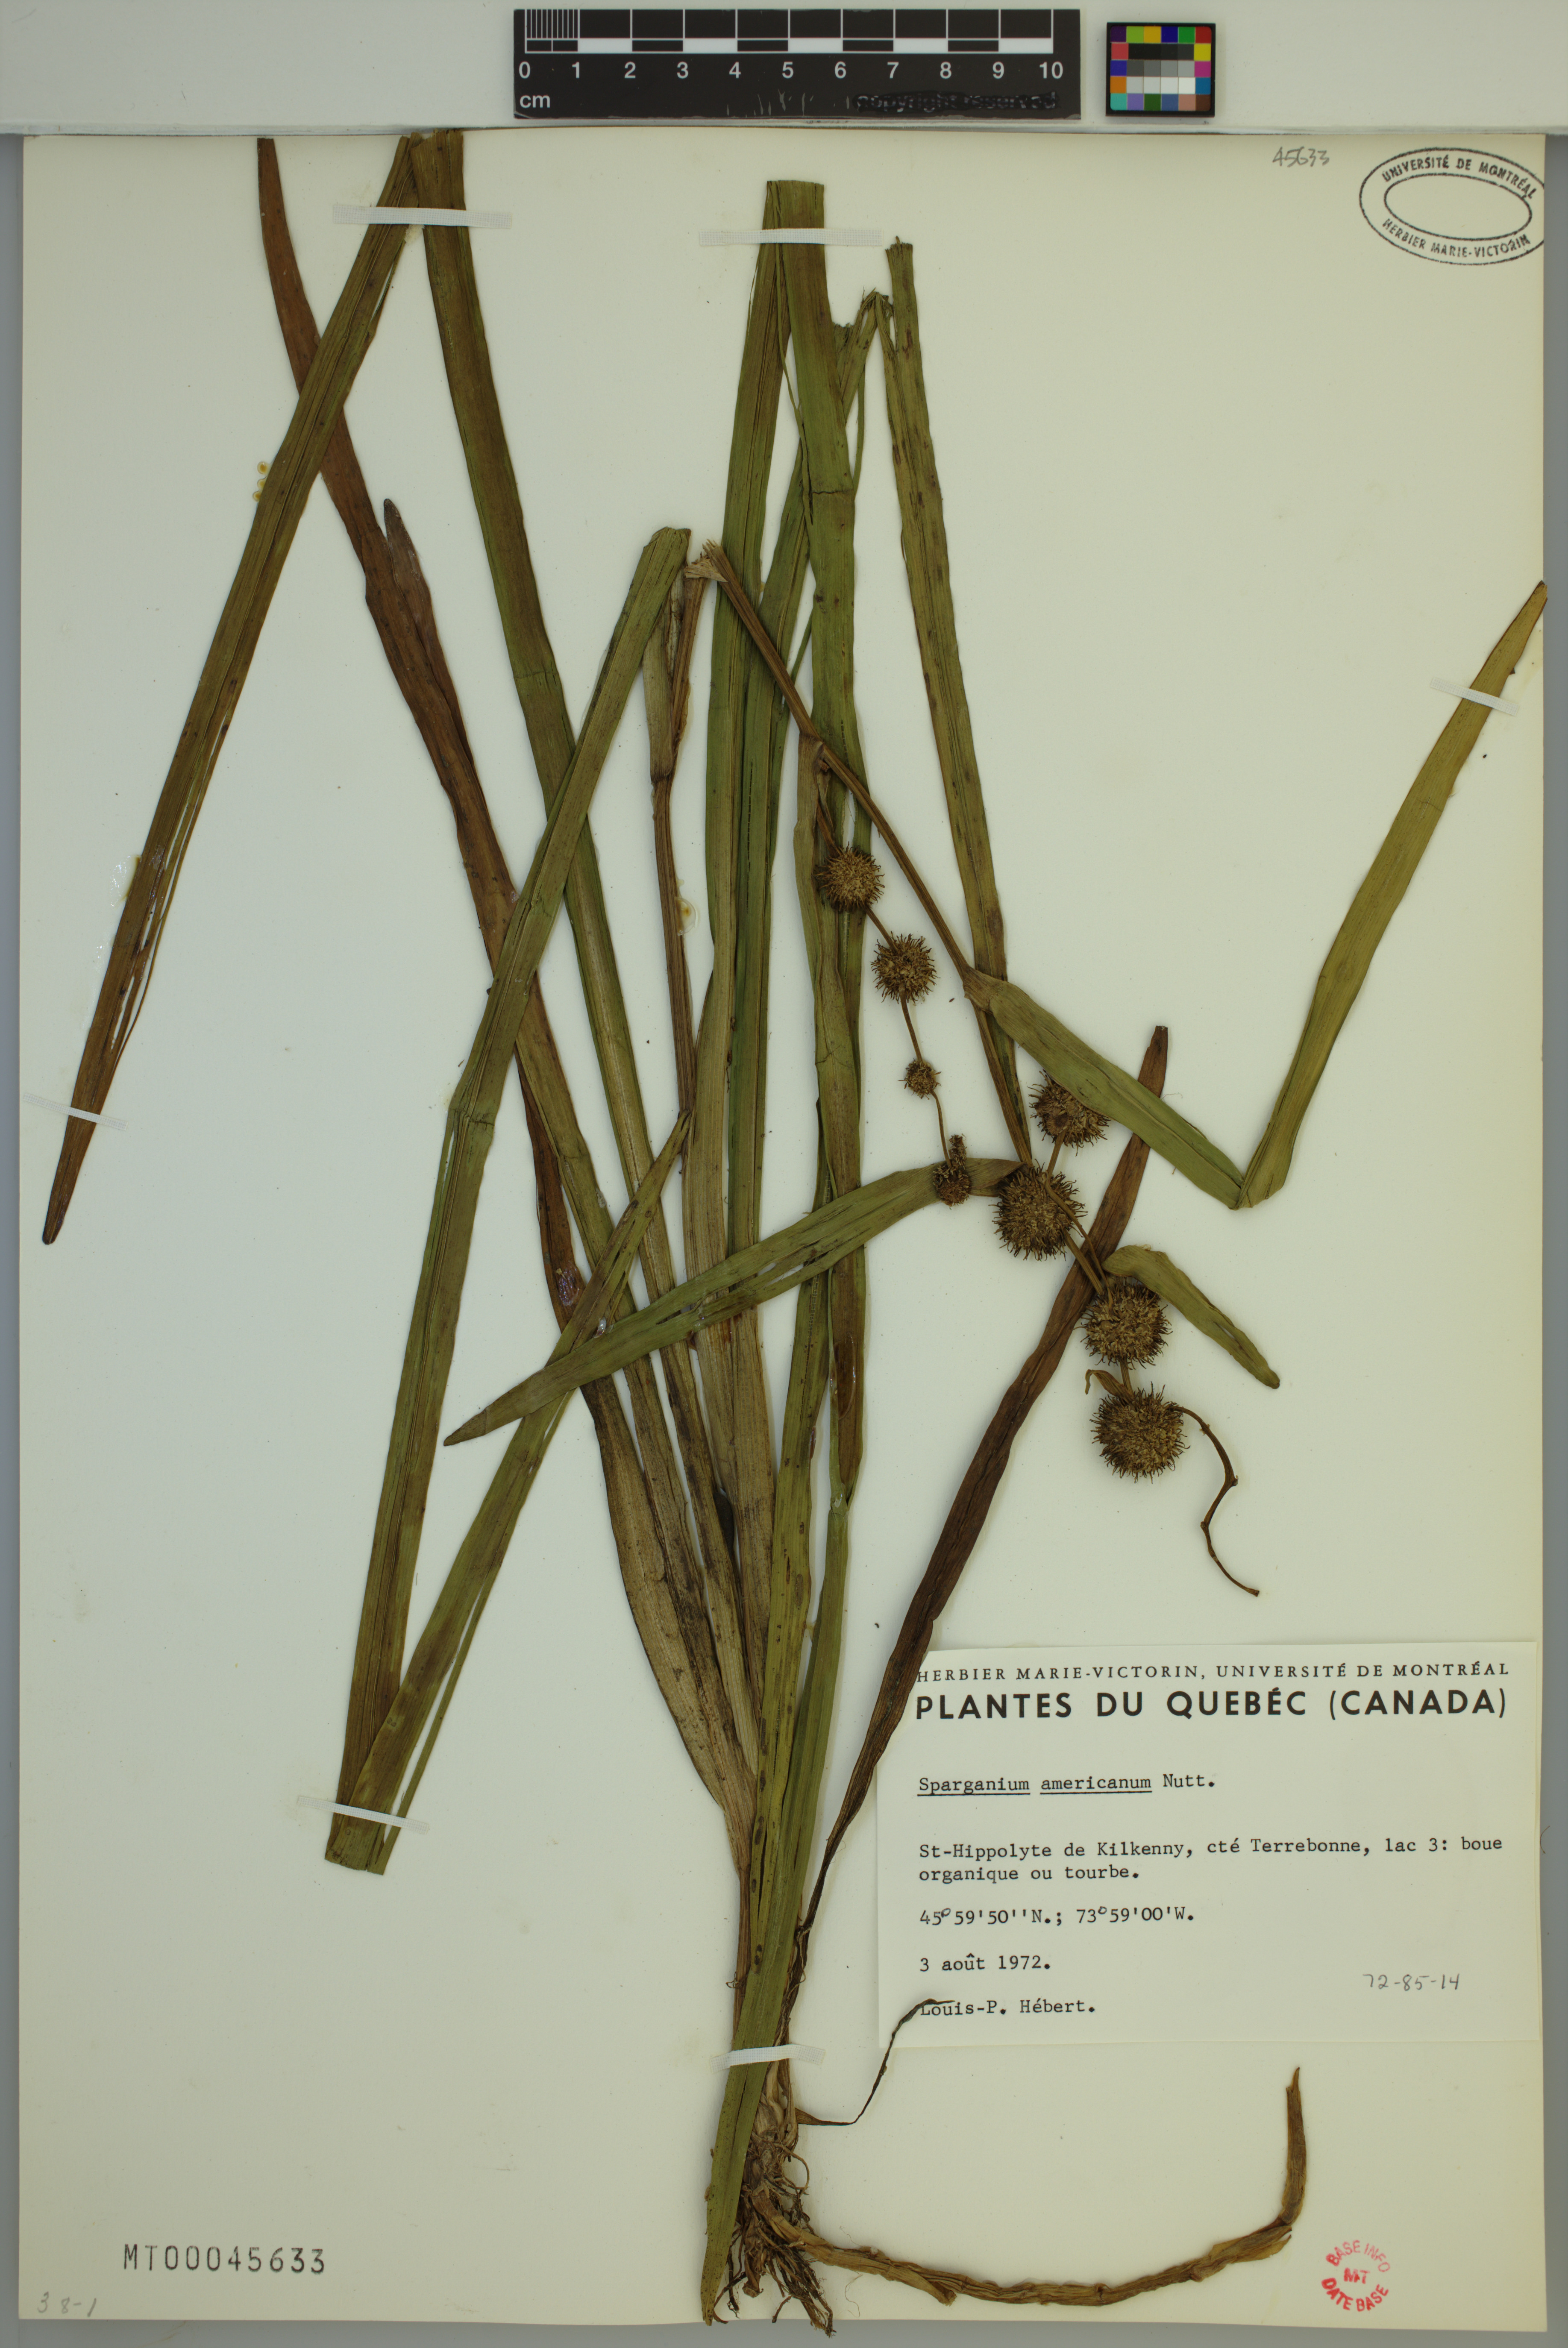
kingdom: Plantae
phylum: Tracheophyta
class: Liliopsida
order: Poales
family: Typhaceae
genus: Sparganium
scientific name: Sparganium americanum
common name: American burreed
